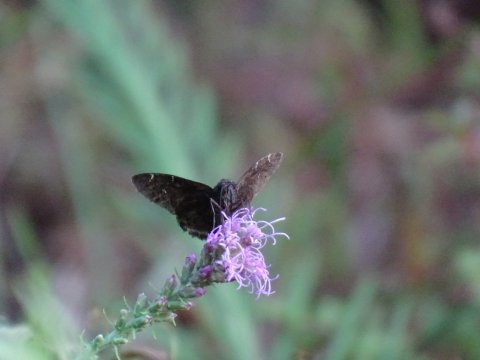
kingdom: Animalia
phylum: Arthropoda
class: Insecta
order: Lepidoptera
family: Hesperiidae
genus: Autochton
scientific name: Autochton
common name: Northern Cloudywing
